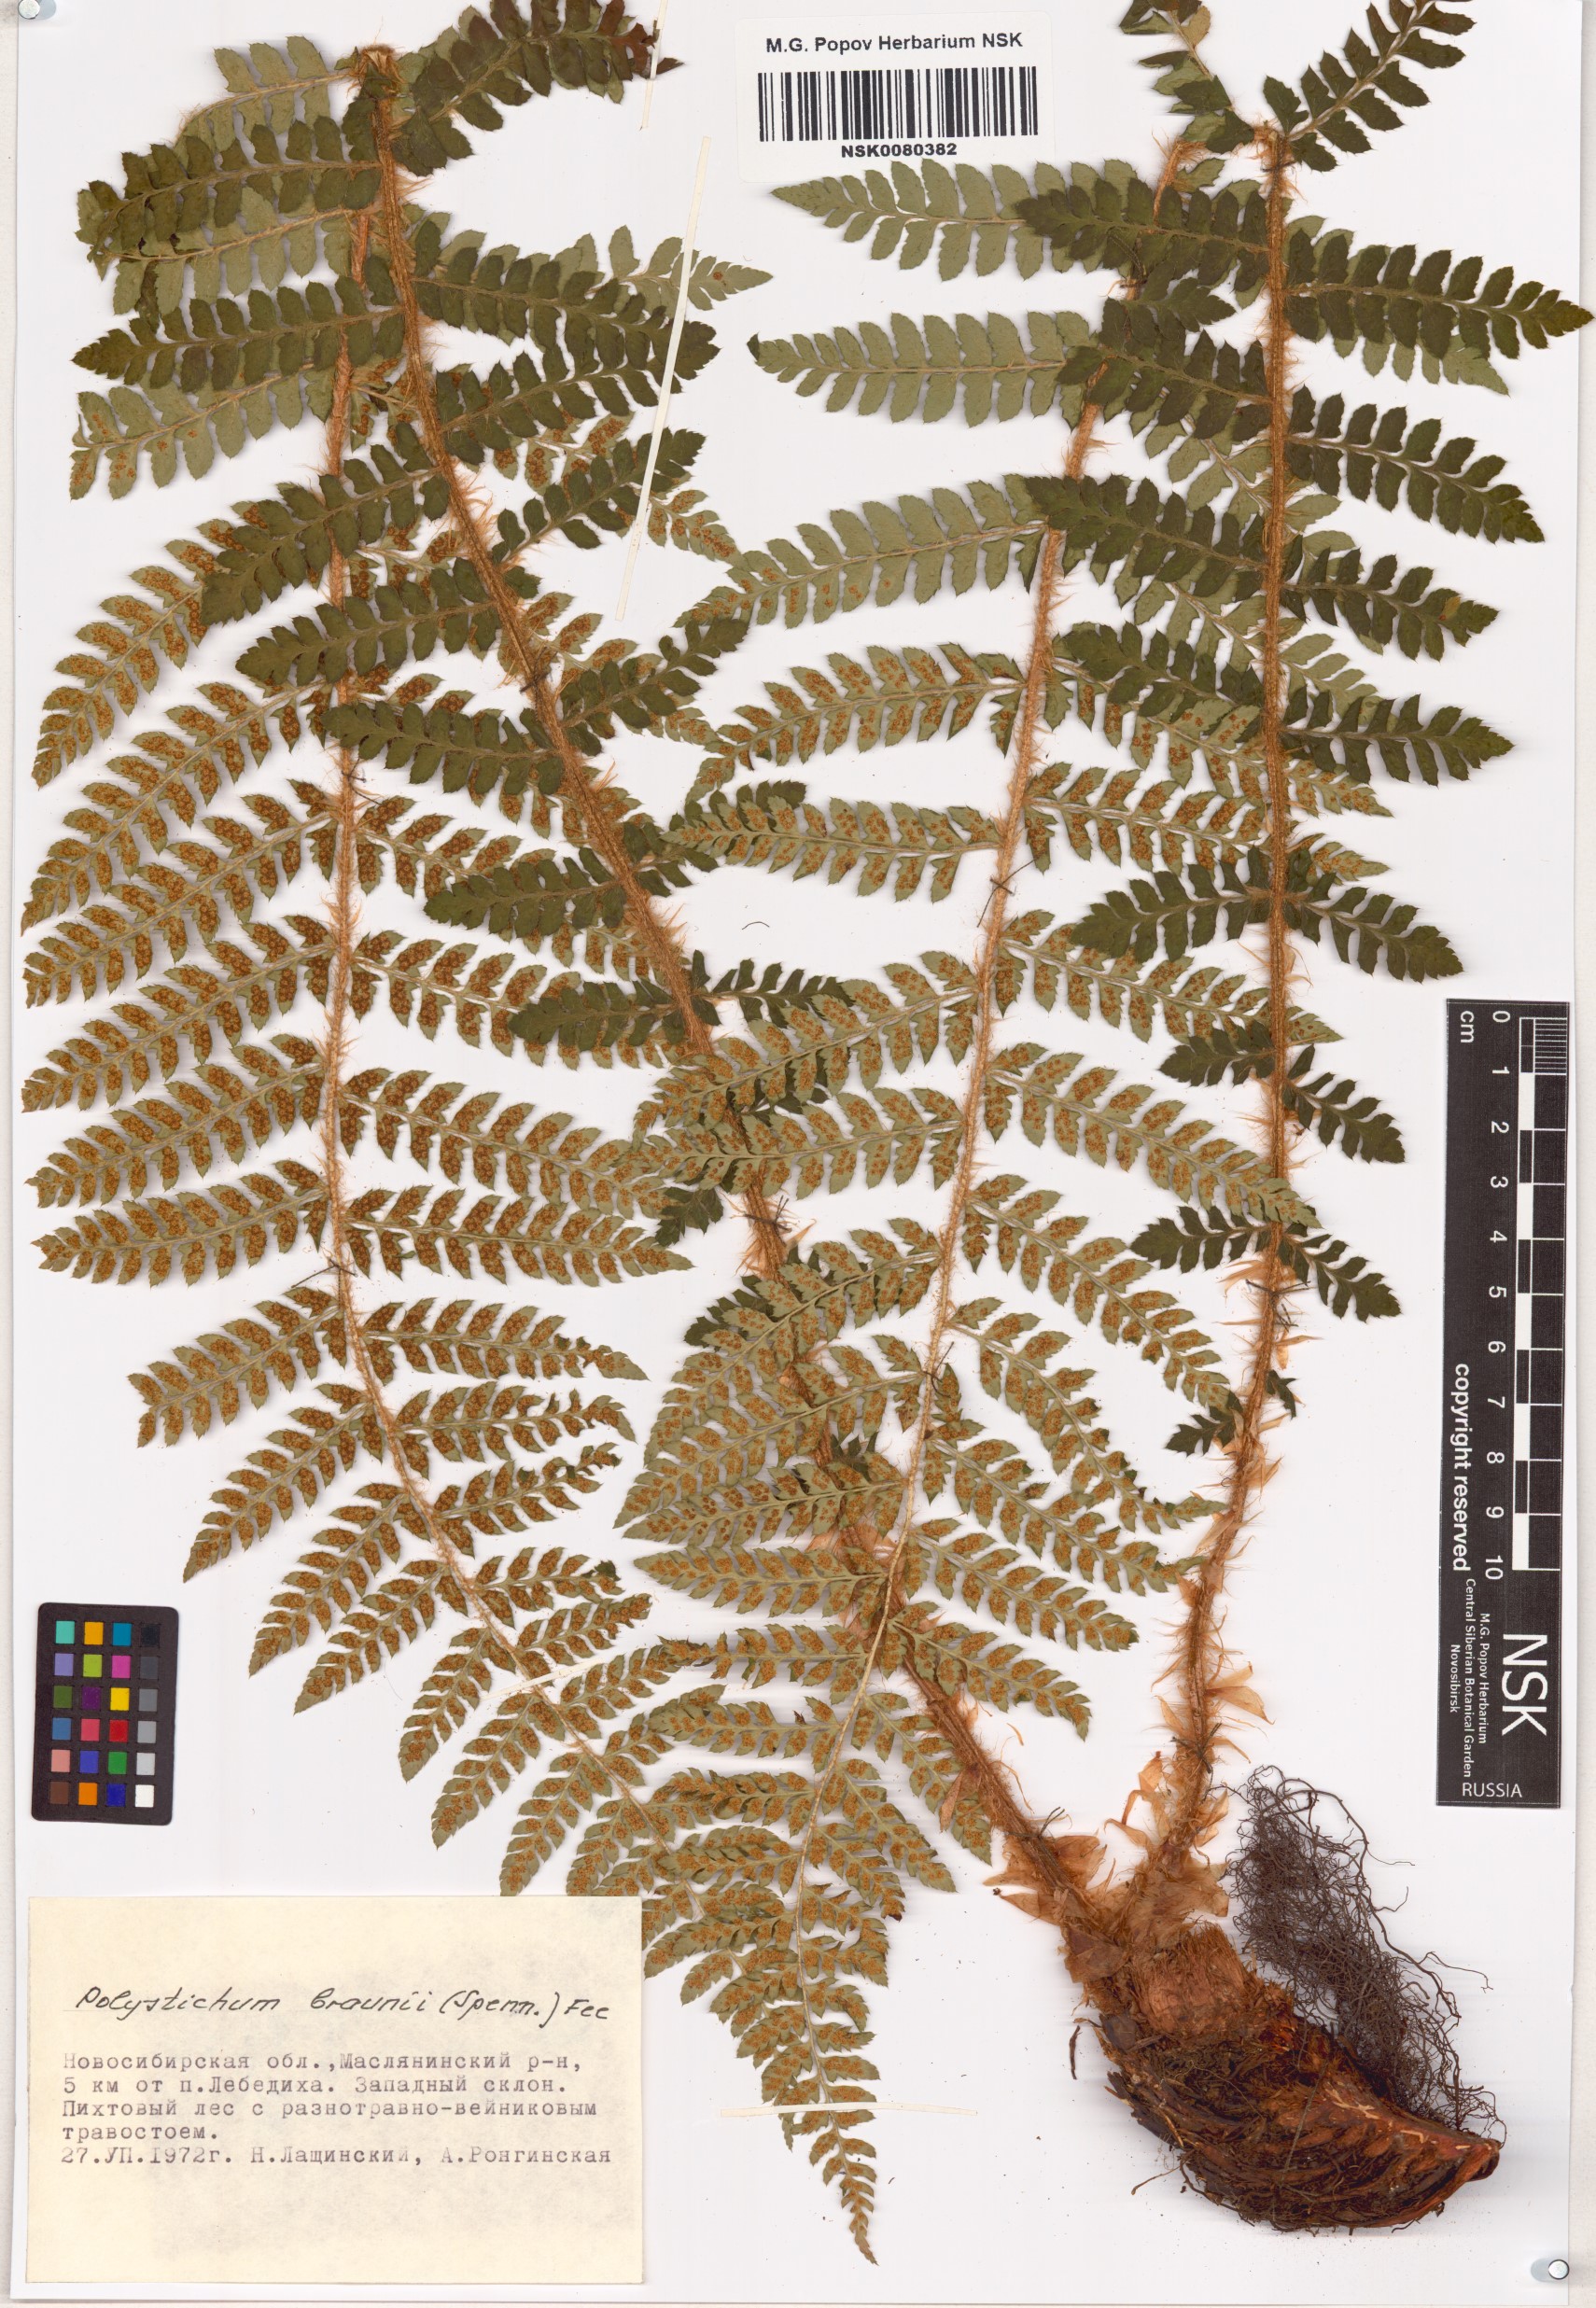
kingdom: Plantae
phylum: Tracheophyta
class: Polypodiopsida
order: Polypodiales
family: Dryopteridaceae
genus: Polystichum
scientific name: Polystichum braunii
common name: Braun's holly fern
